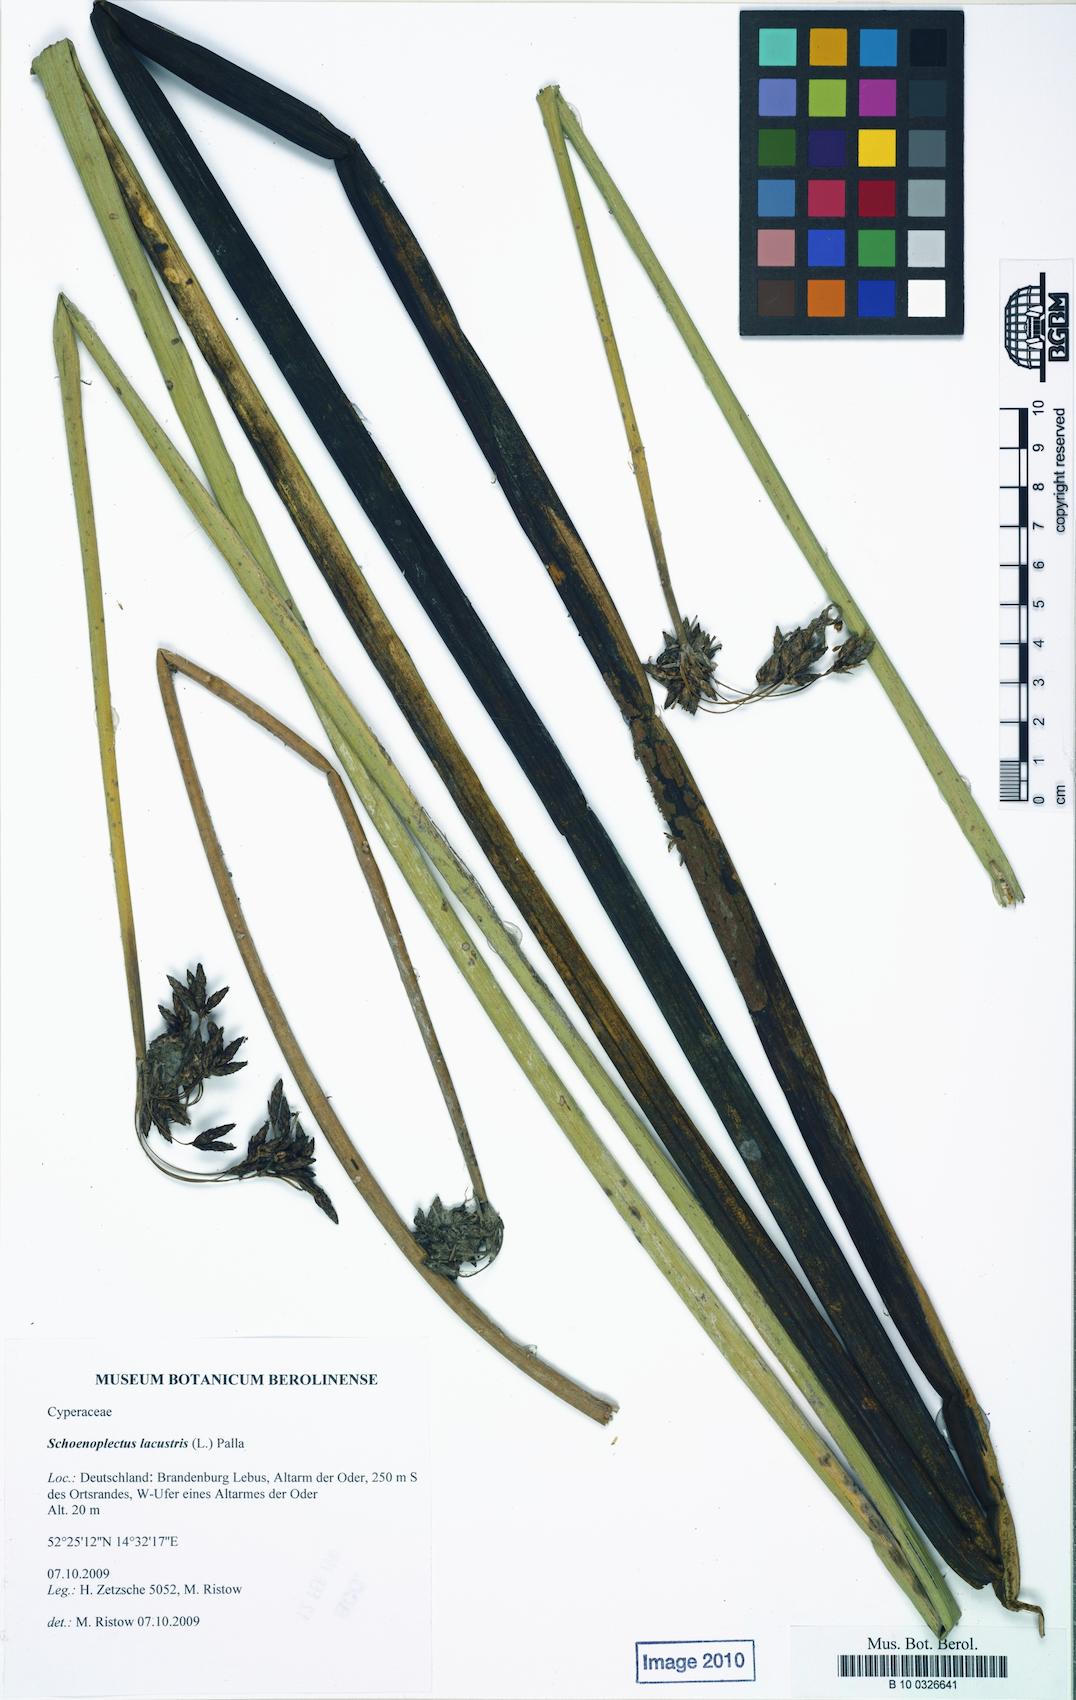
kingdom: Plantae
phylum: Tracheophyta
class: Liliopsida
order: Poales
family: Cyperaceae
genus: Schoenoplectus
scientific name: Schoenoplectus lacustris
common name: Common club-rush
